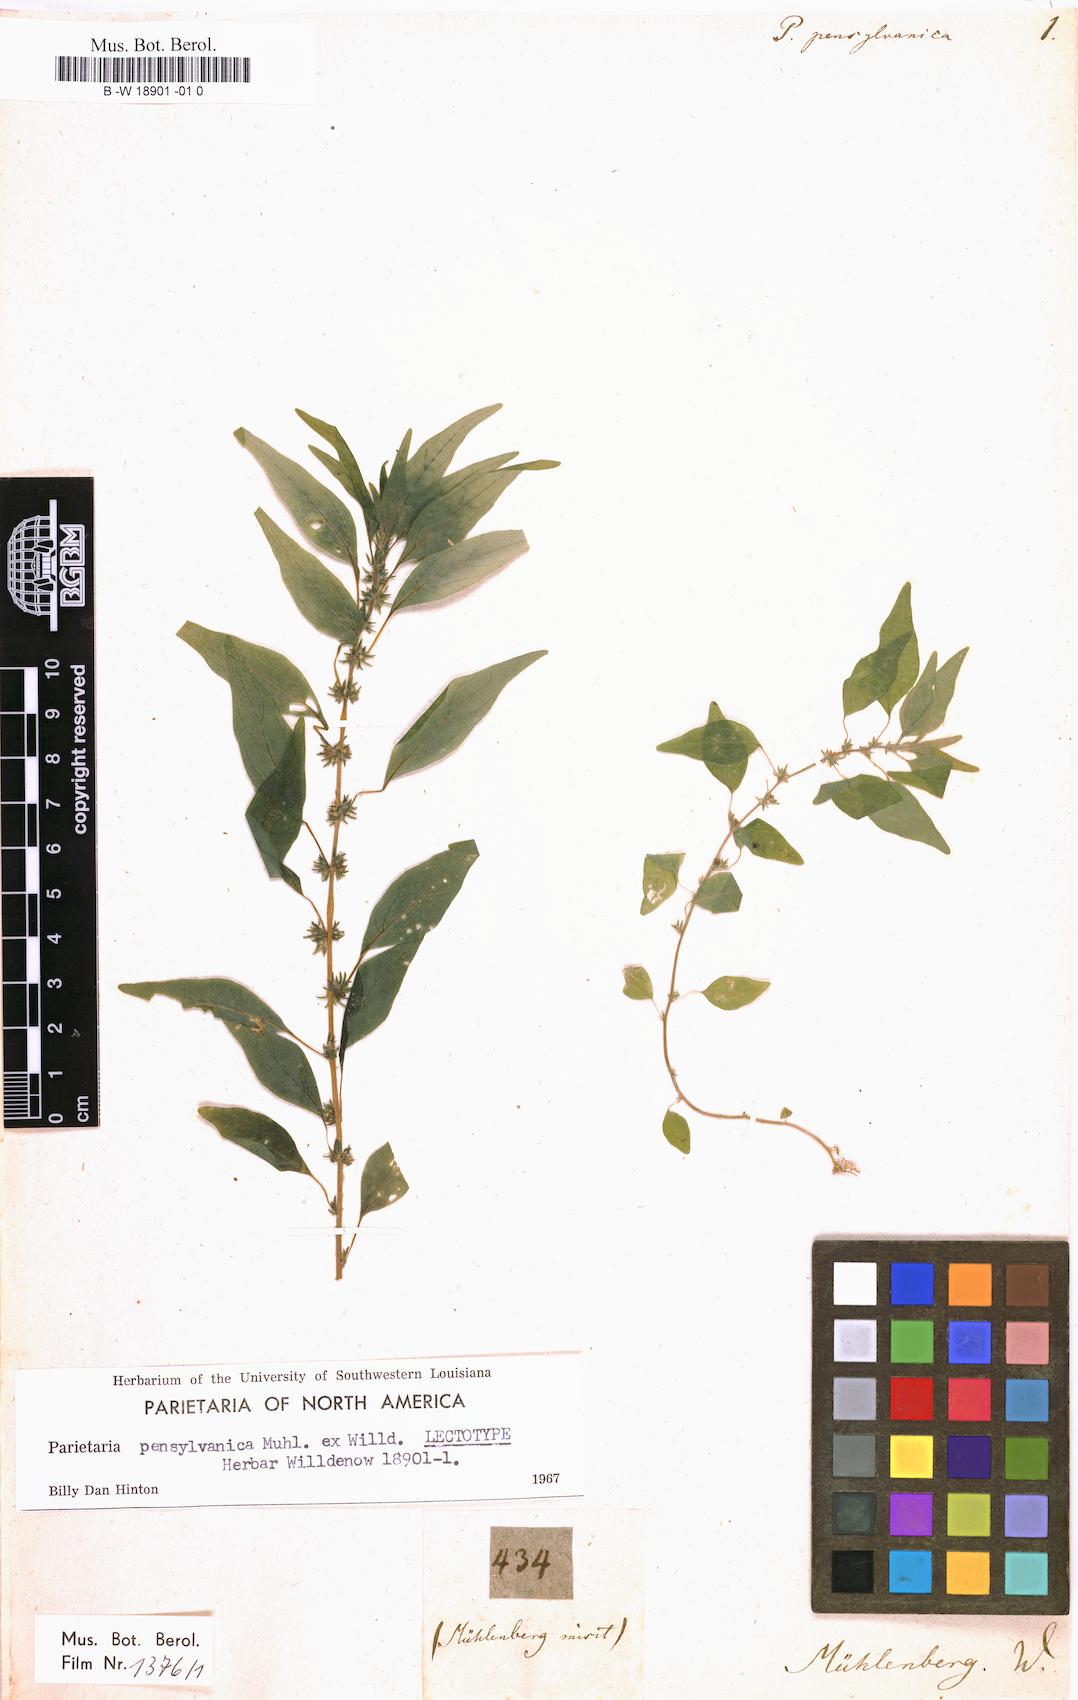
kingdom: Plantae
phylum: Tracheophyta
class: Magnoliopsida
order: Rosales
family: Urticaceae
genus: Parietaria
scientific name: Parietaria pensylvanica
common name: Pennsylvania pellitory
